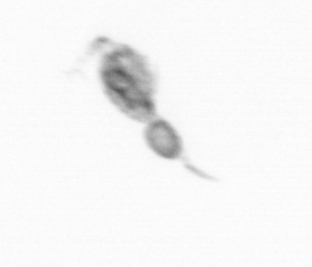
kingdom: Animalia
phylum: Arthropoda
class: Copepoda
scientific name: Copepoda
